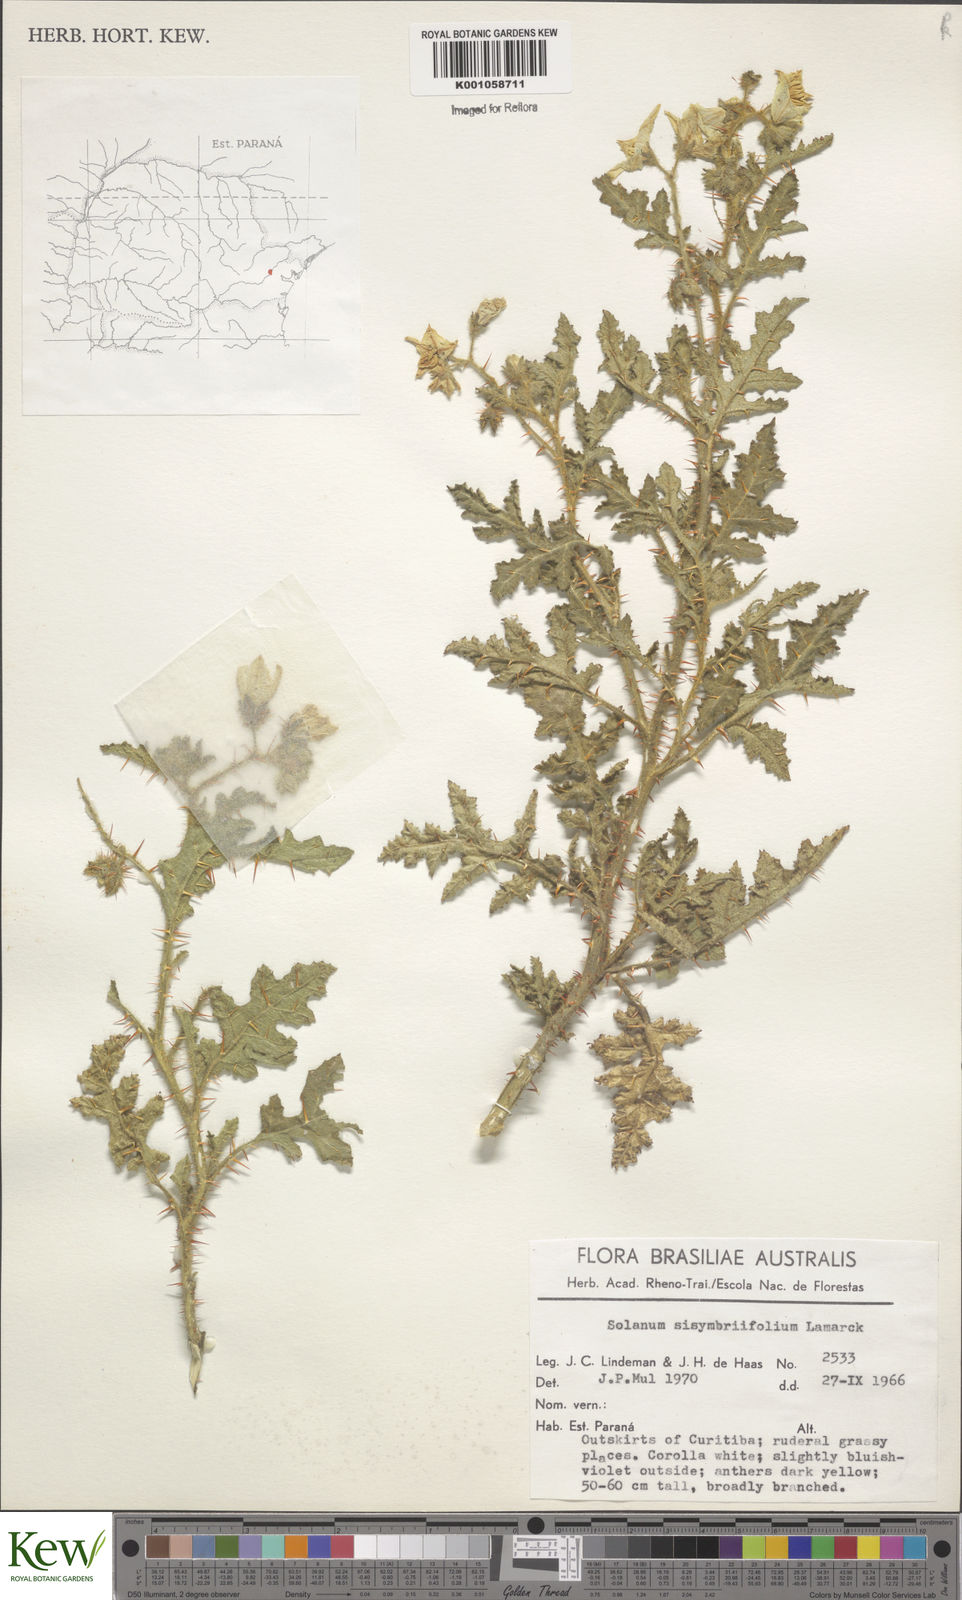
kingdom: Plantae
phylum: Tracheophyta
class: Magnoliopsida
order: Solanales
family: Solanaceae
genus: Solanum
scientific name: Solanum sisymbriifolium
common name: Red buffalo-bur
